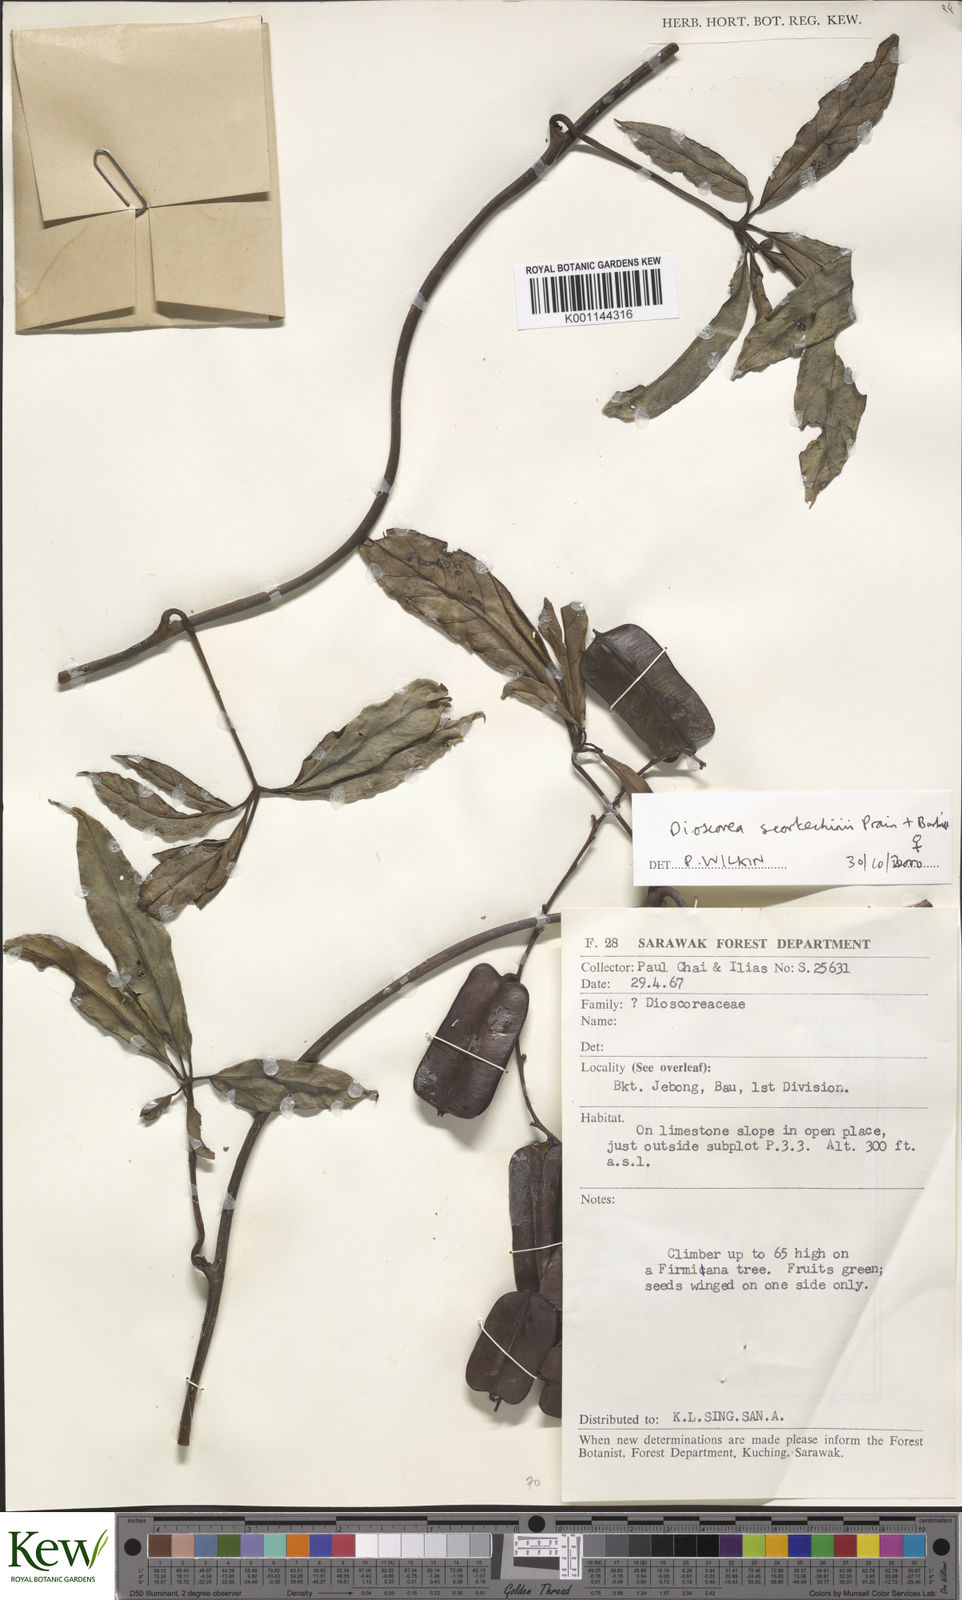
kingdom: Plantae
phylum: Tracheophyta
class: Liliopsida
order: Dioscoreales
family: Dioscoreaceae
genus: Dioscorea
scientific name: Dioscorea scortechinii
